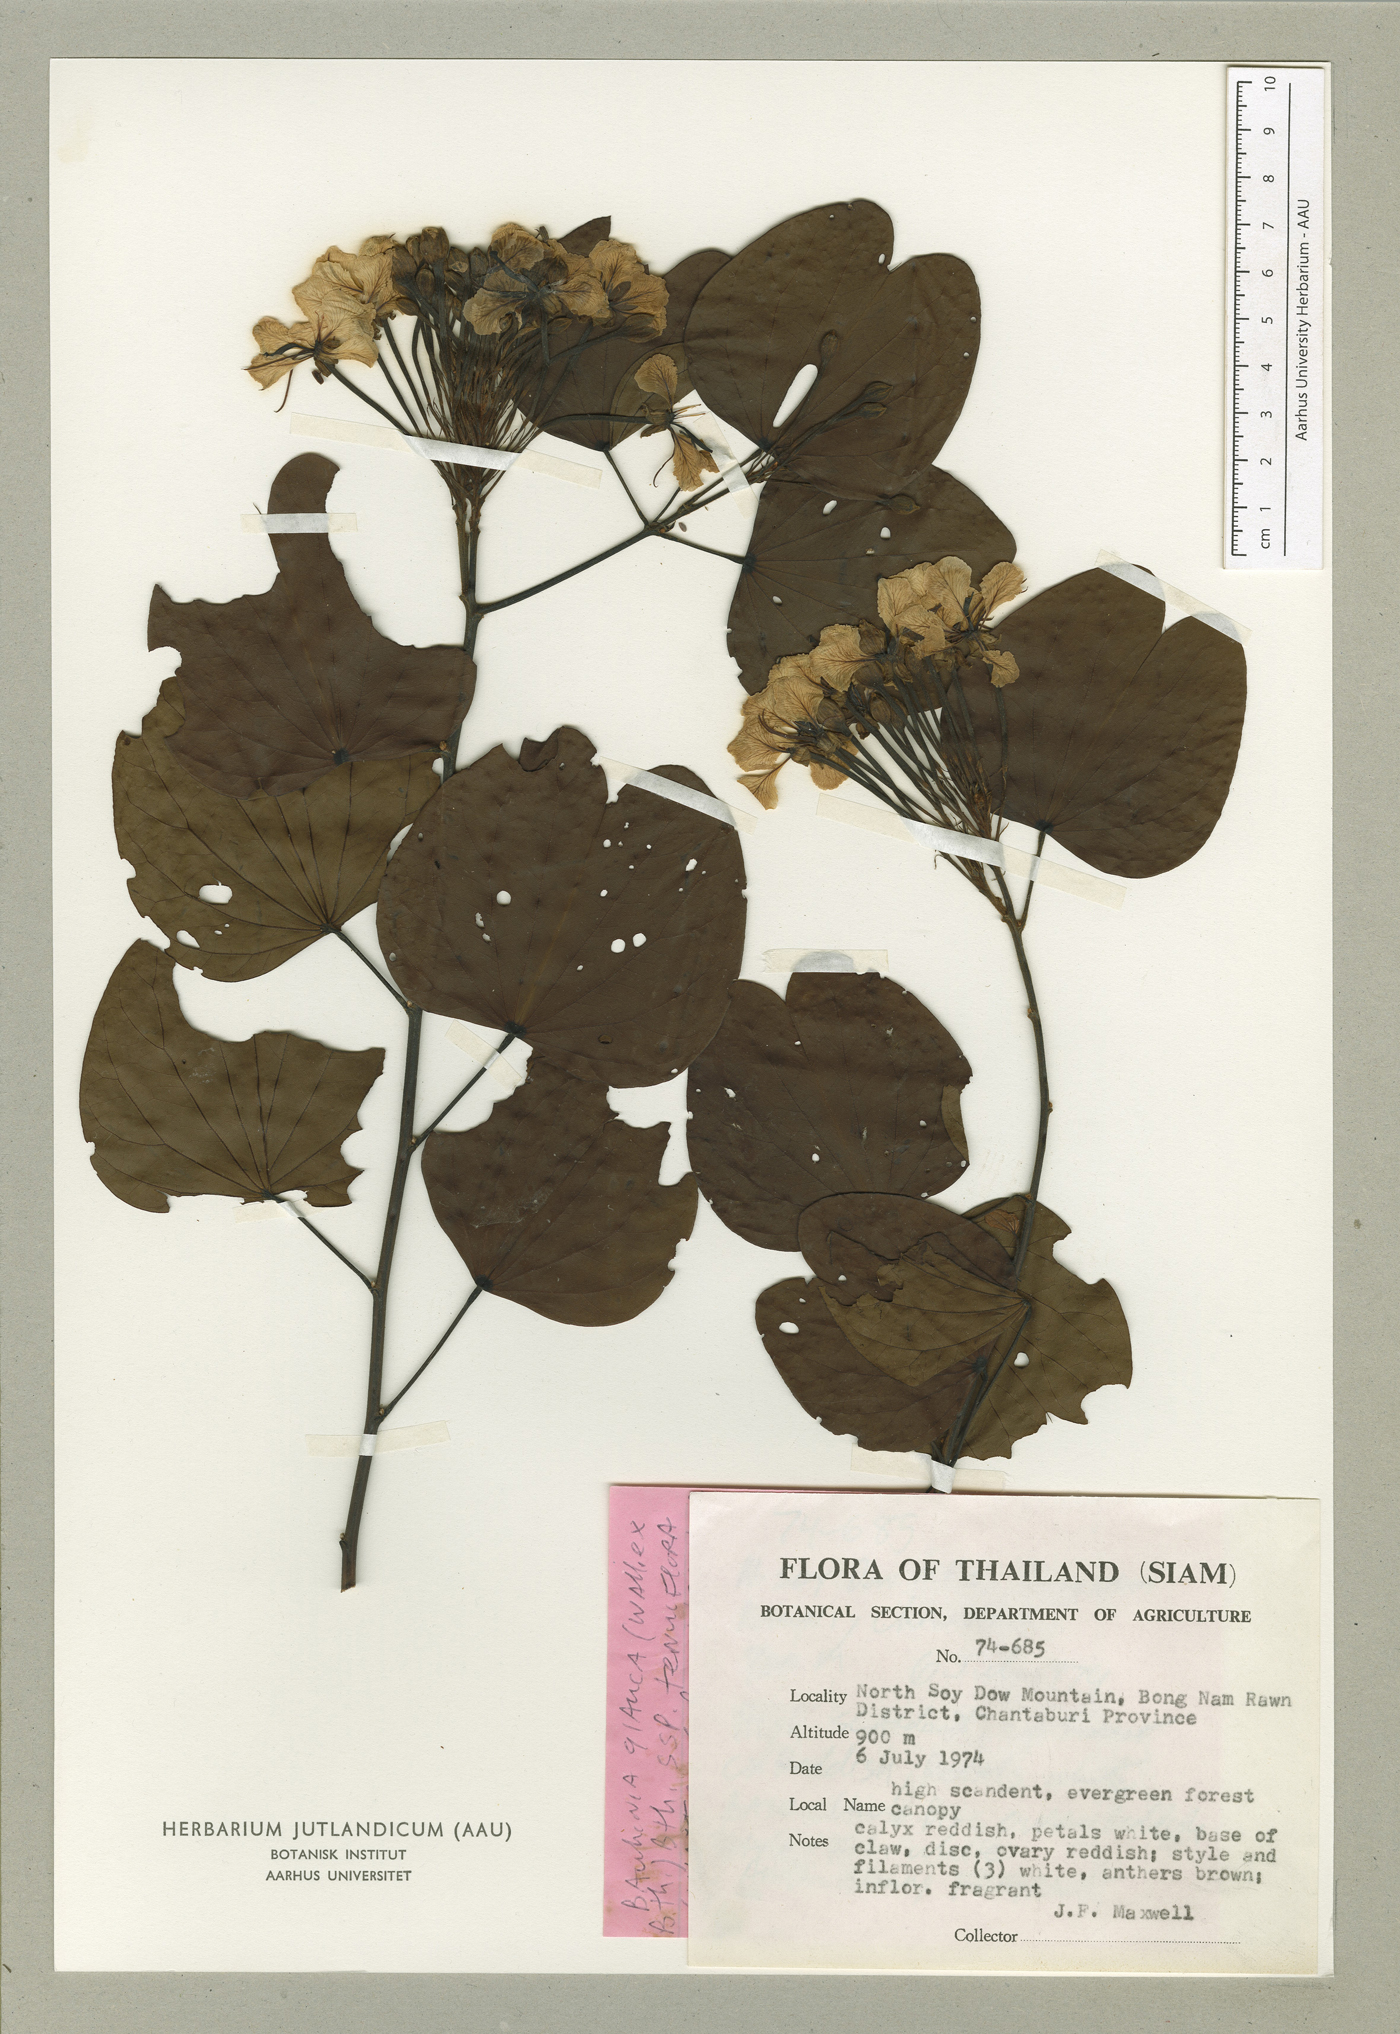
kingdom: Plantae
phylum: Tracheophyta
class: Magnoliopsida
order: Fabales
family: Fabaceae
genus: Cheniella
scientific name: Cheniella tenuiflora
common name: Bauhinia
